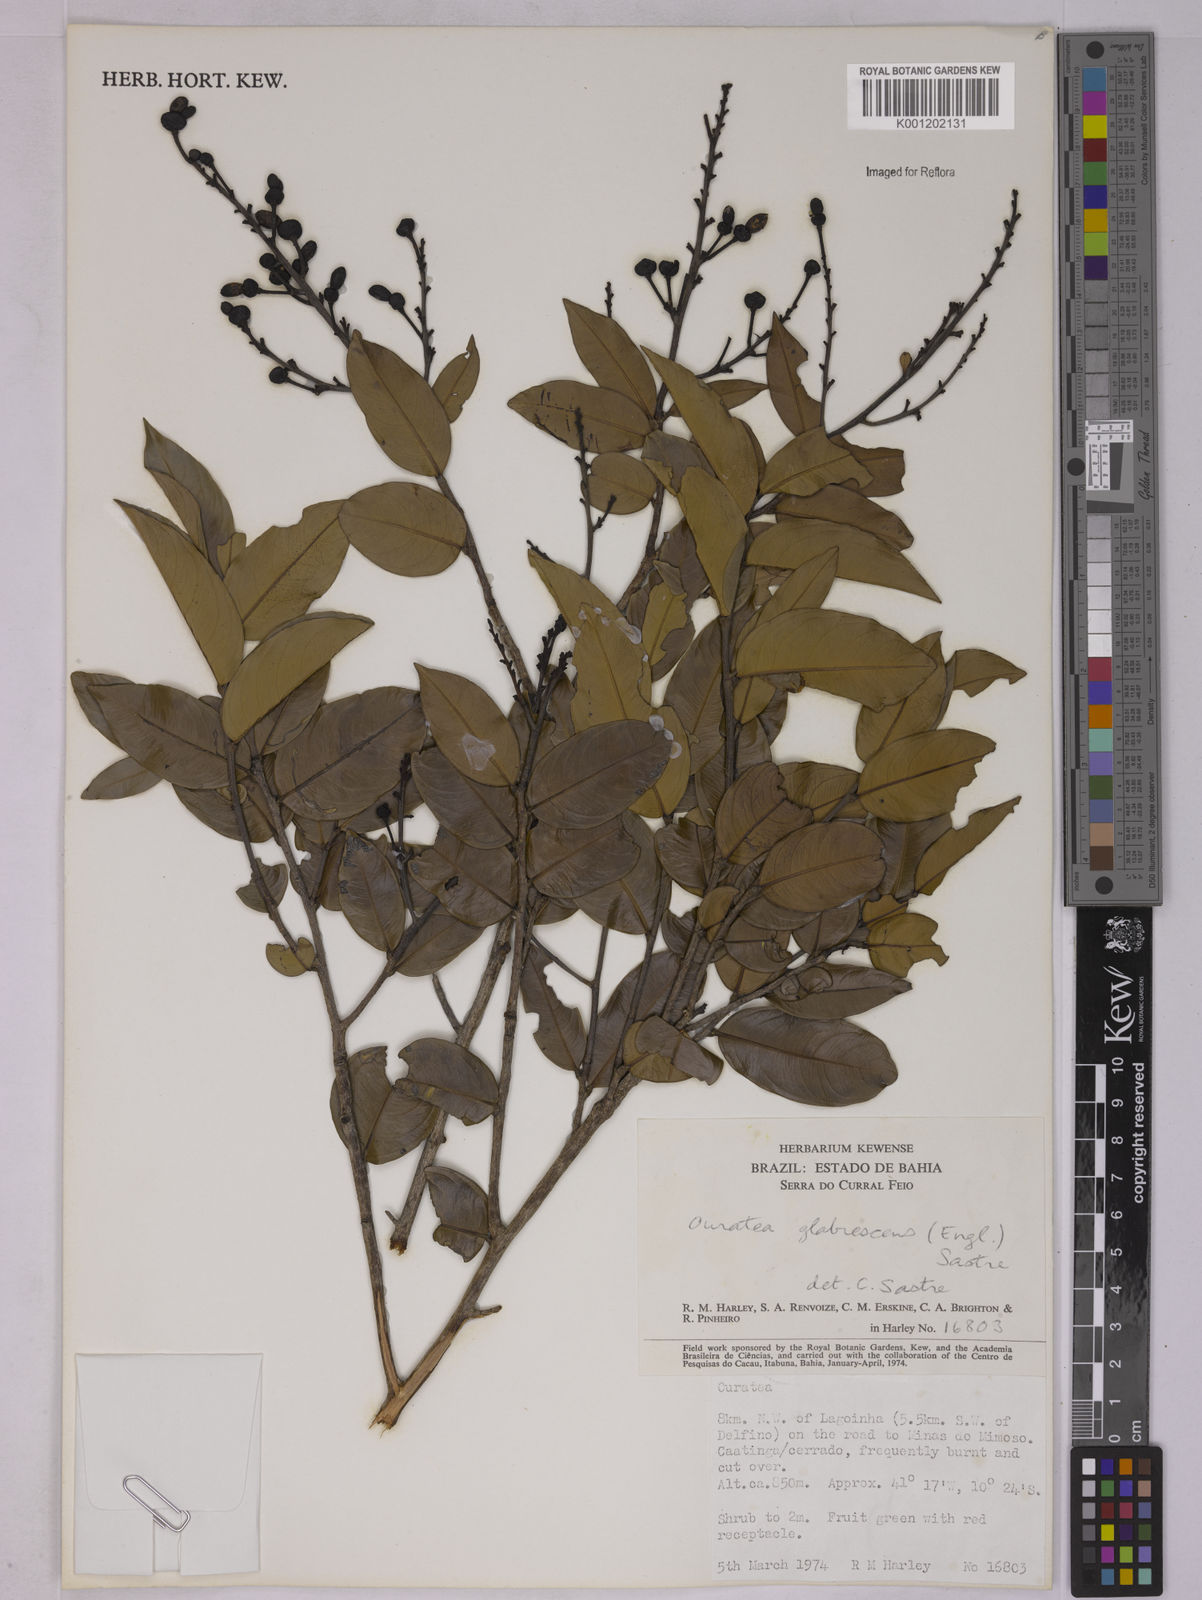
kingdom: Plantae
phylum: Tracheophyta
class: Magnoliopsida
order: Malpighiales
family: Ochnaceae
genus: Ouratea
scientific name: Ouratea
